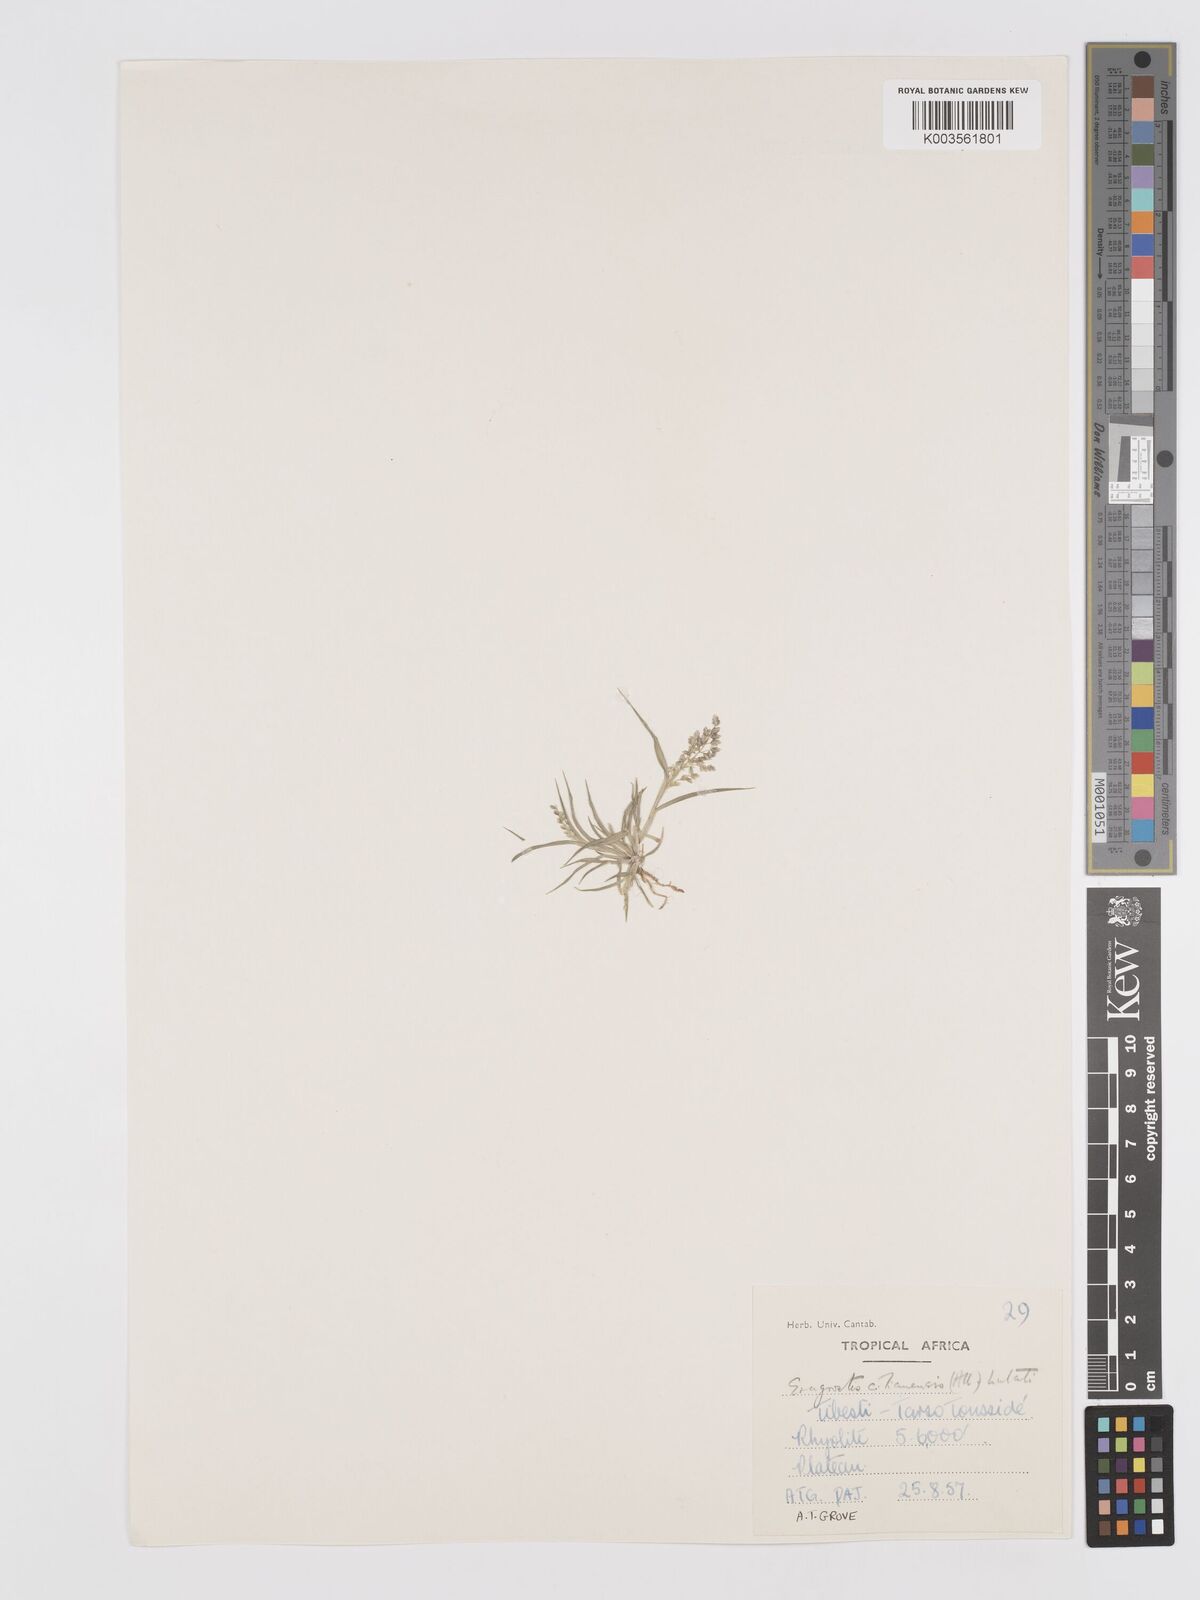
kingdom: Plantae
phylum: Tracheophyta
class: Liliopsida
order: Poales
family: Poaceae
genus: Eragrostis
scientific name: Eragrostis cilianensis
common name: Stinkgrass
